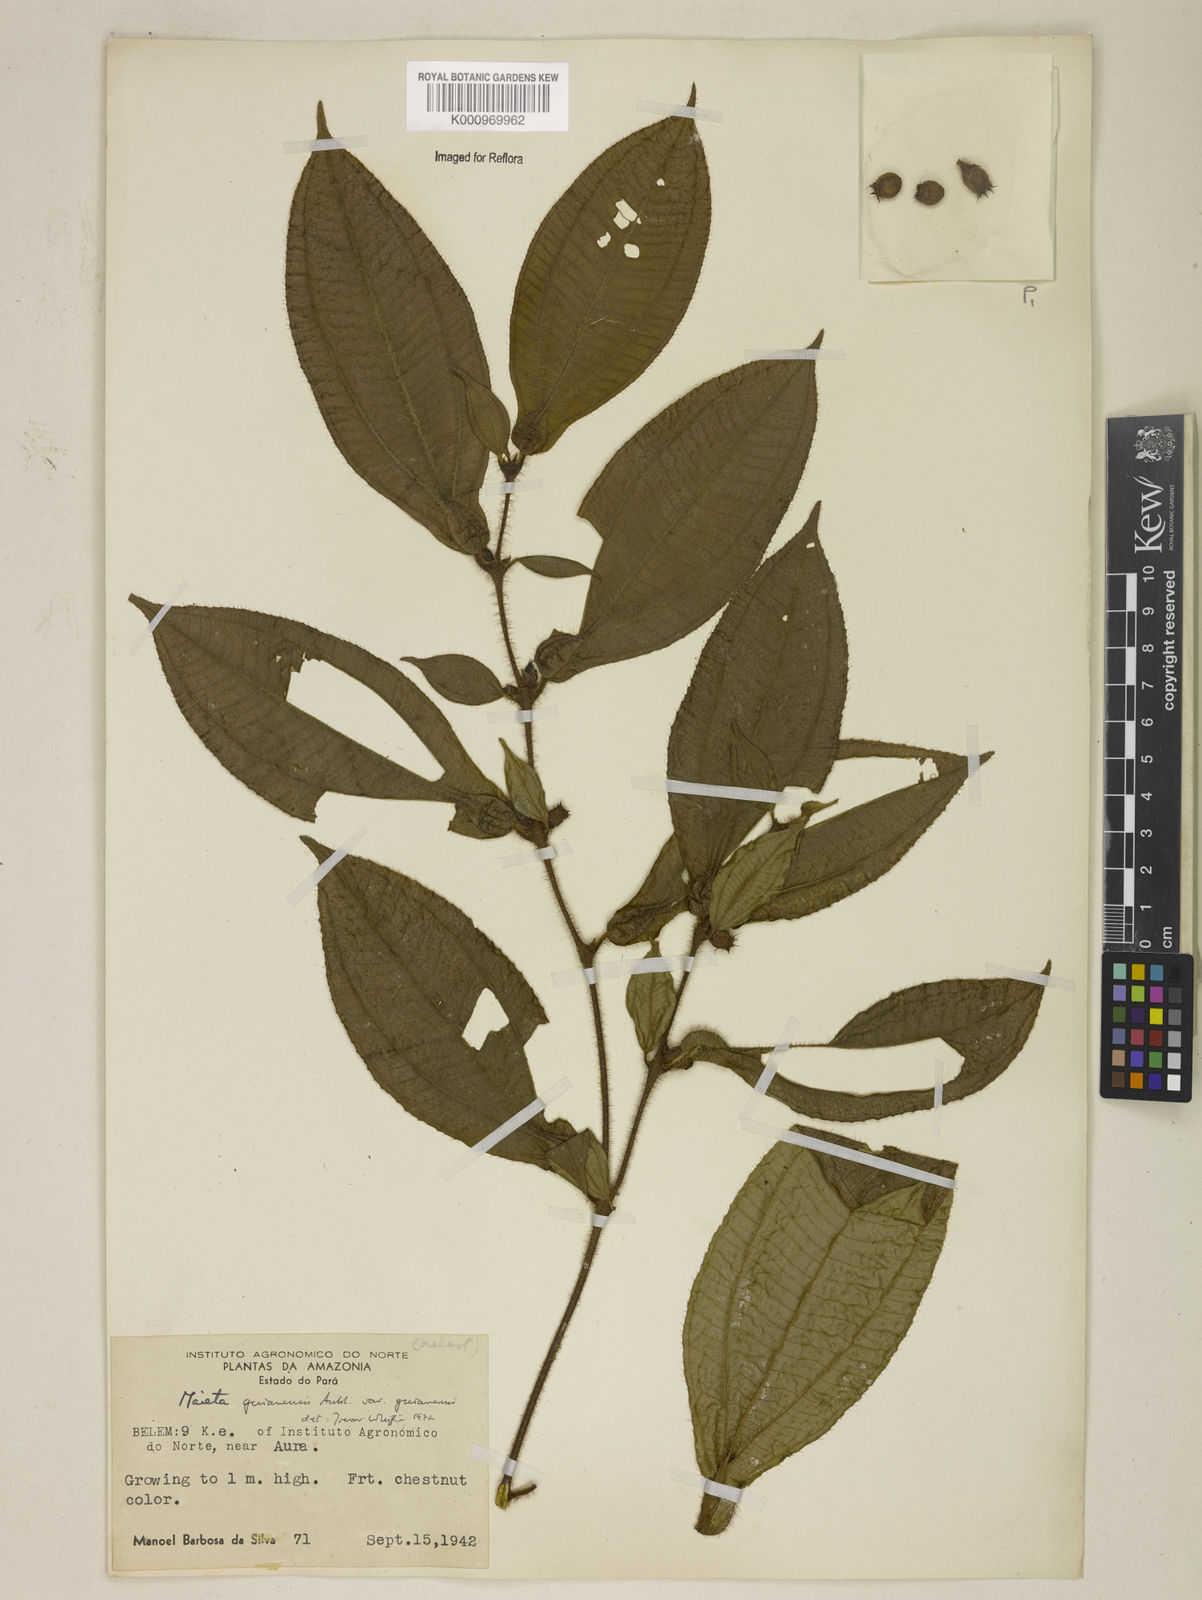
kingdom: Plantae
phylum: Tracheophyta
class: Magnoliopsida
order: Myrtales
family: Melastomataceae
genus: Miconia
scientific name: Miconia mayeta
